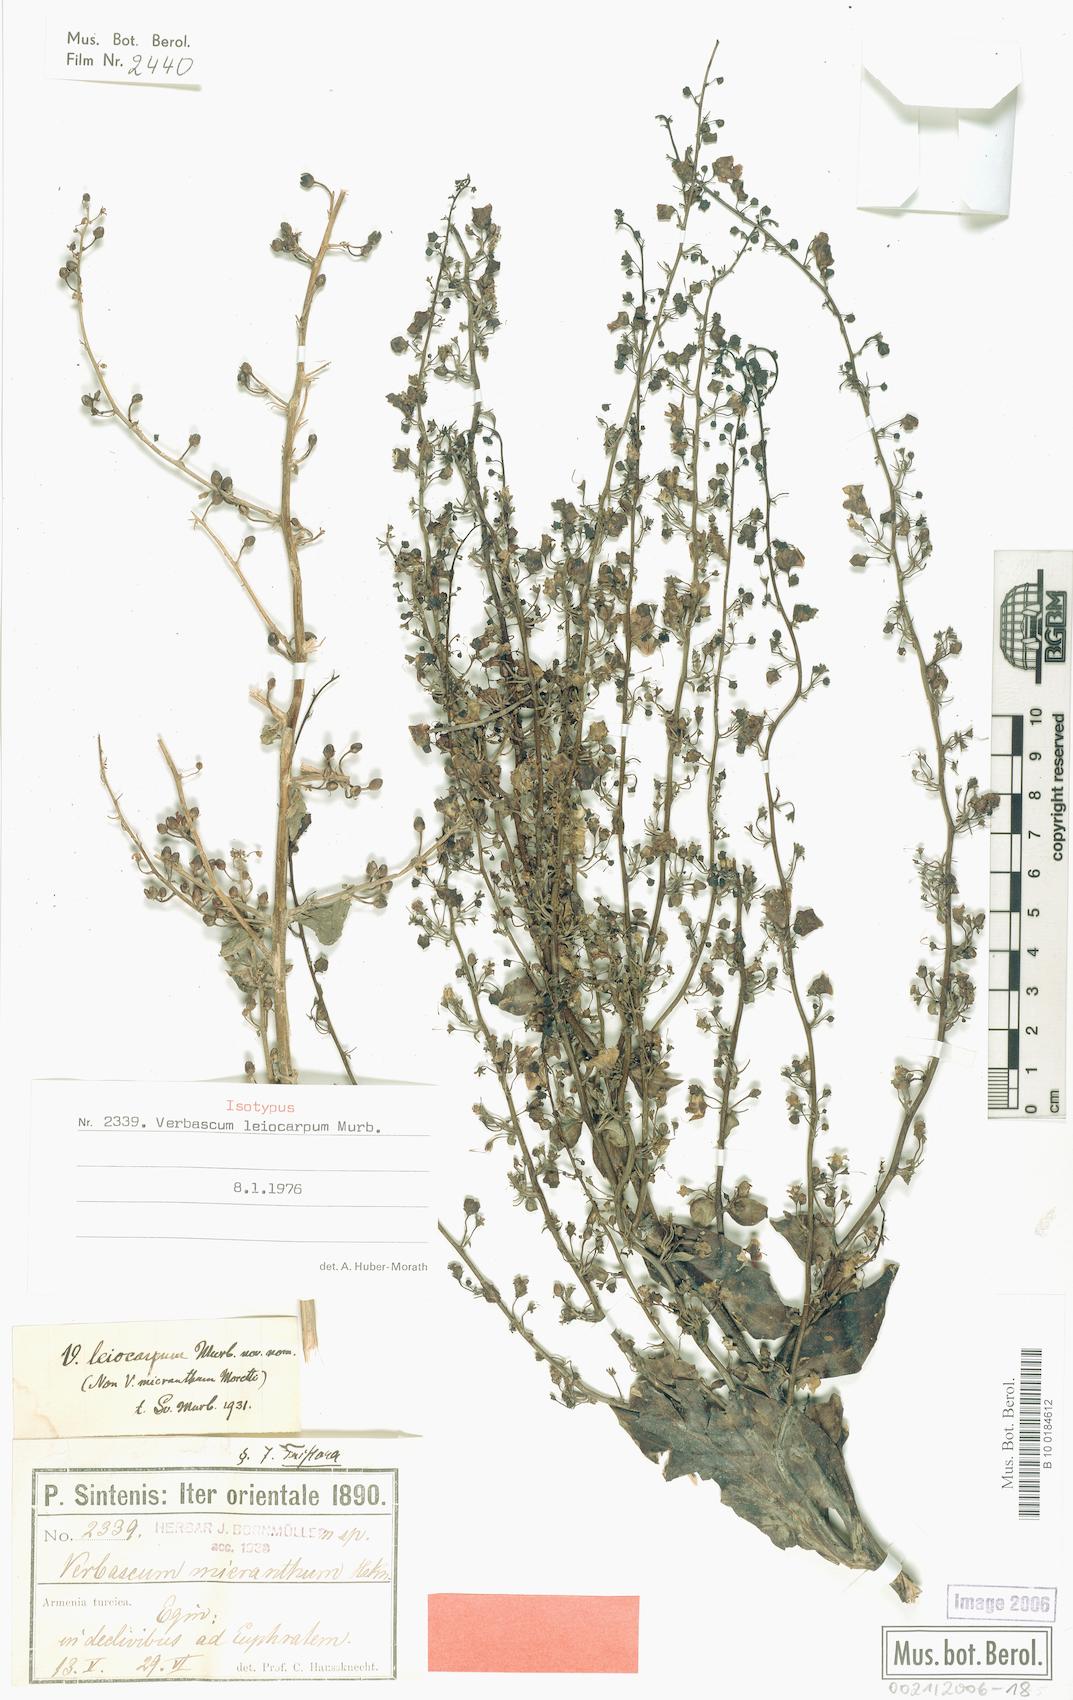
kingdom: Plantae
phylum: Tracheophyta
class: Magnoliopsida
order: Lamiales
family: Scrophulariaceae
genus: Verbascum
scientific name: Verbascum leiocarpum
